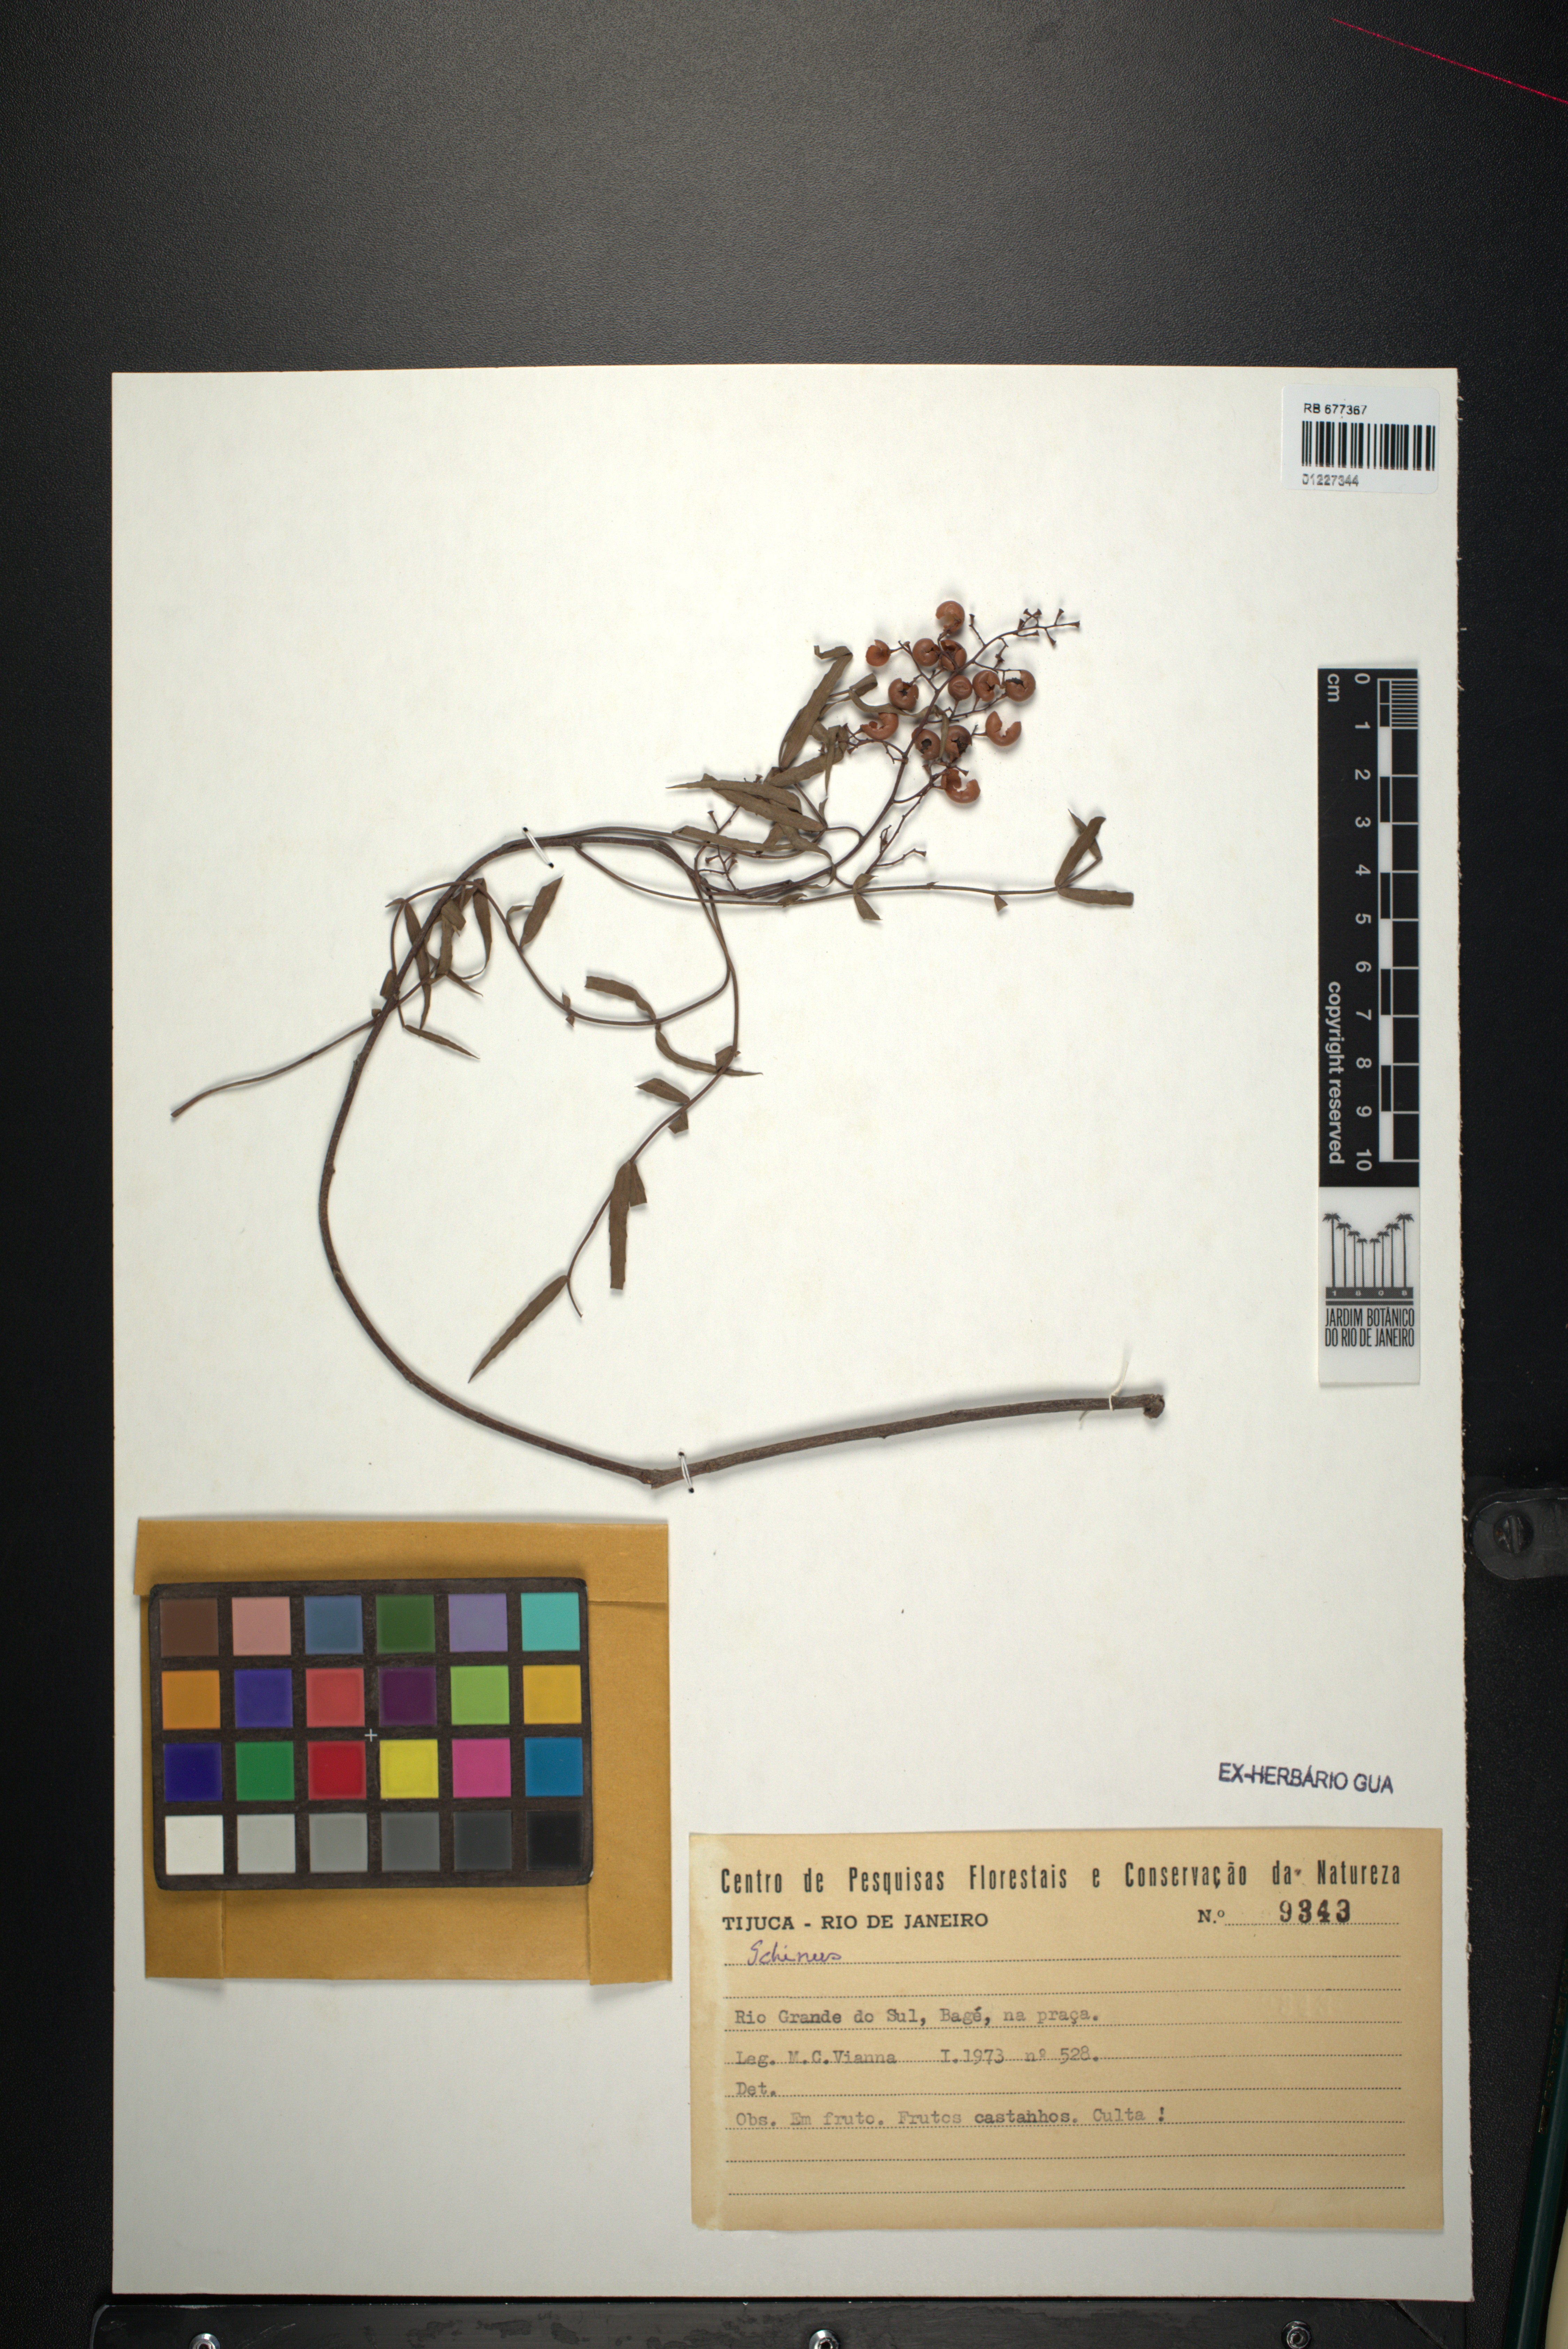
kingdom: Plantae
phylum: Tracheophyta
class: Magnoliopsida
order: Sapindales
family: Anacardiaceae
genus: Schinus
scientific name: Schinus
